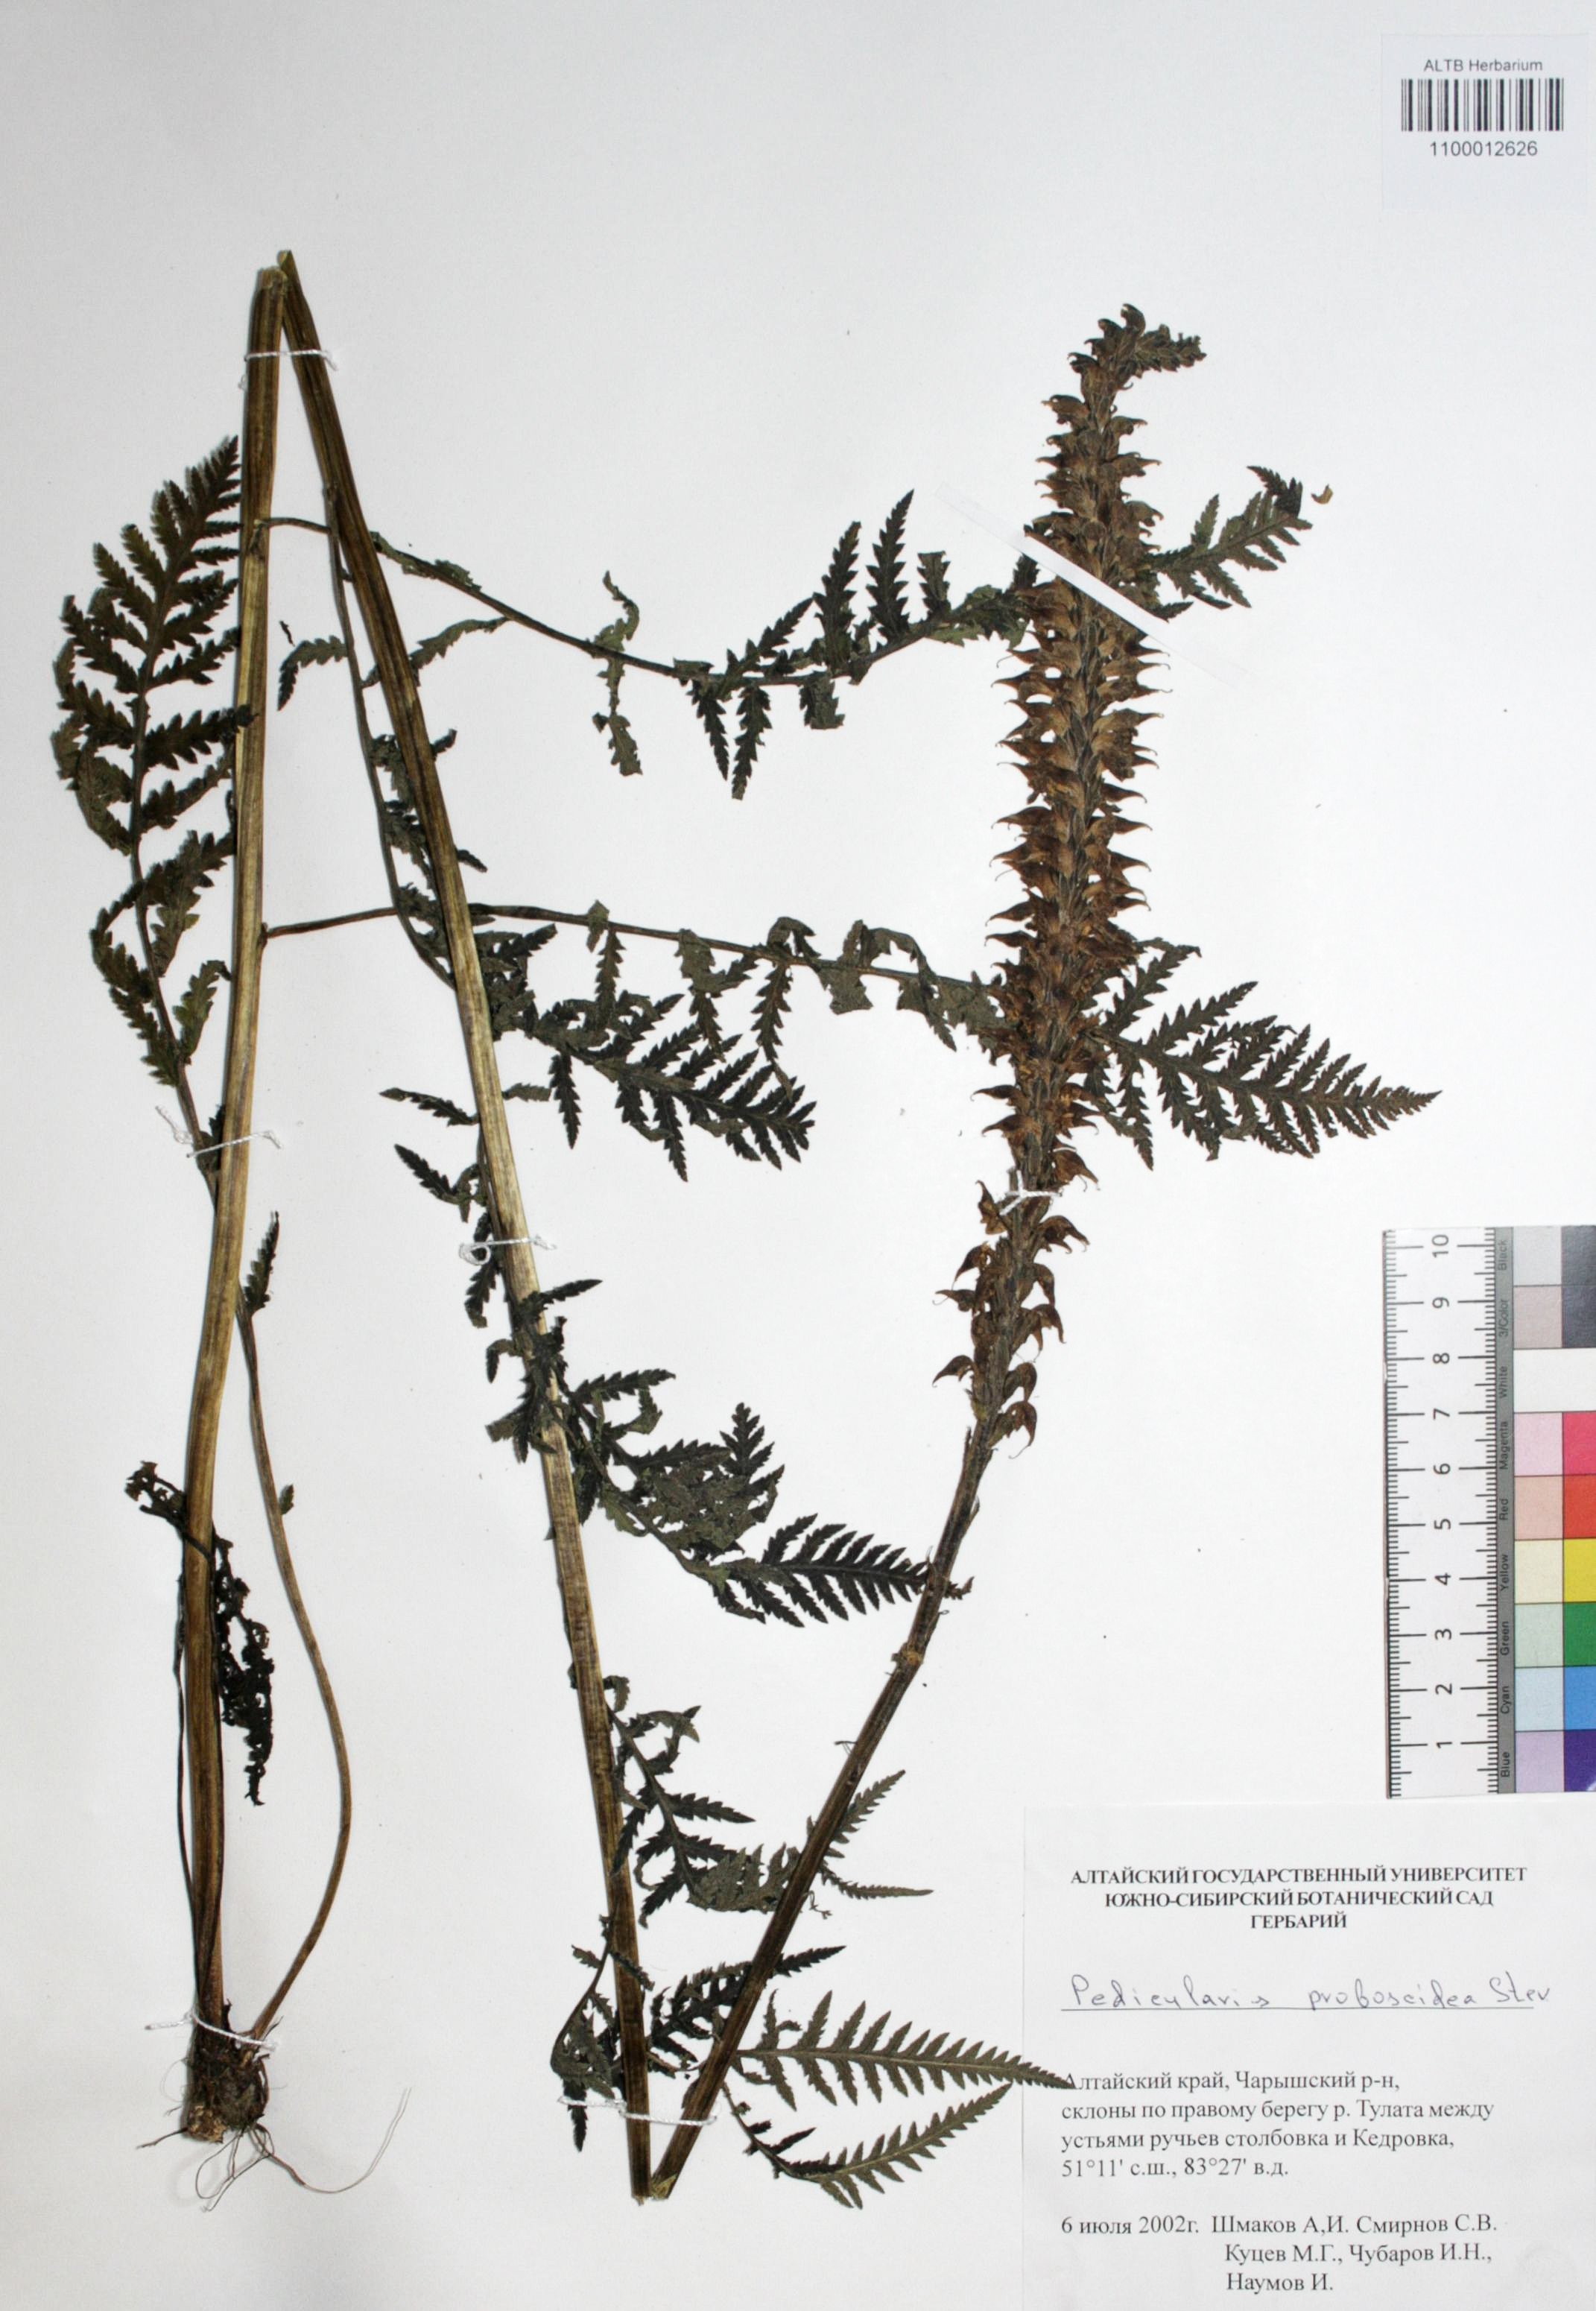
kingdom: Plantae
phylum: Tracheophyta
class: Magnoliopsida
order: Lamiales
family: Orobanchaceae
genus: Pedicularis
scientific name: Pedicularis proboscidea
